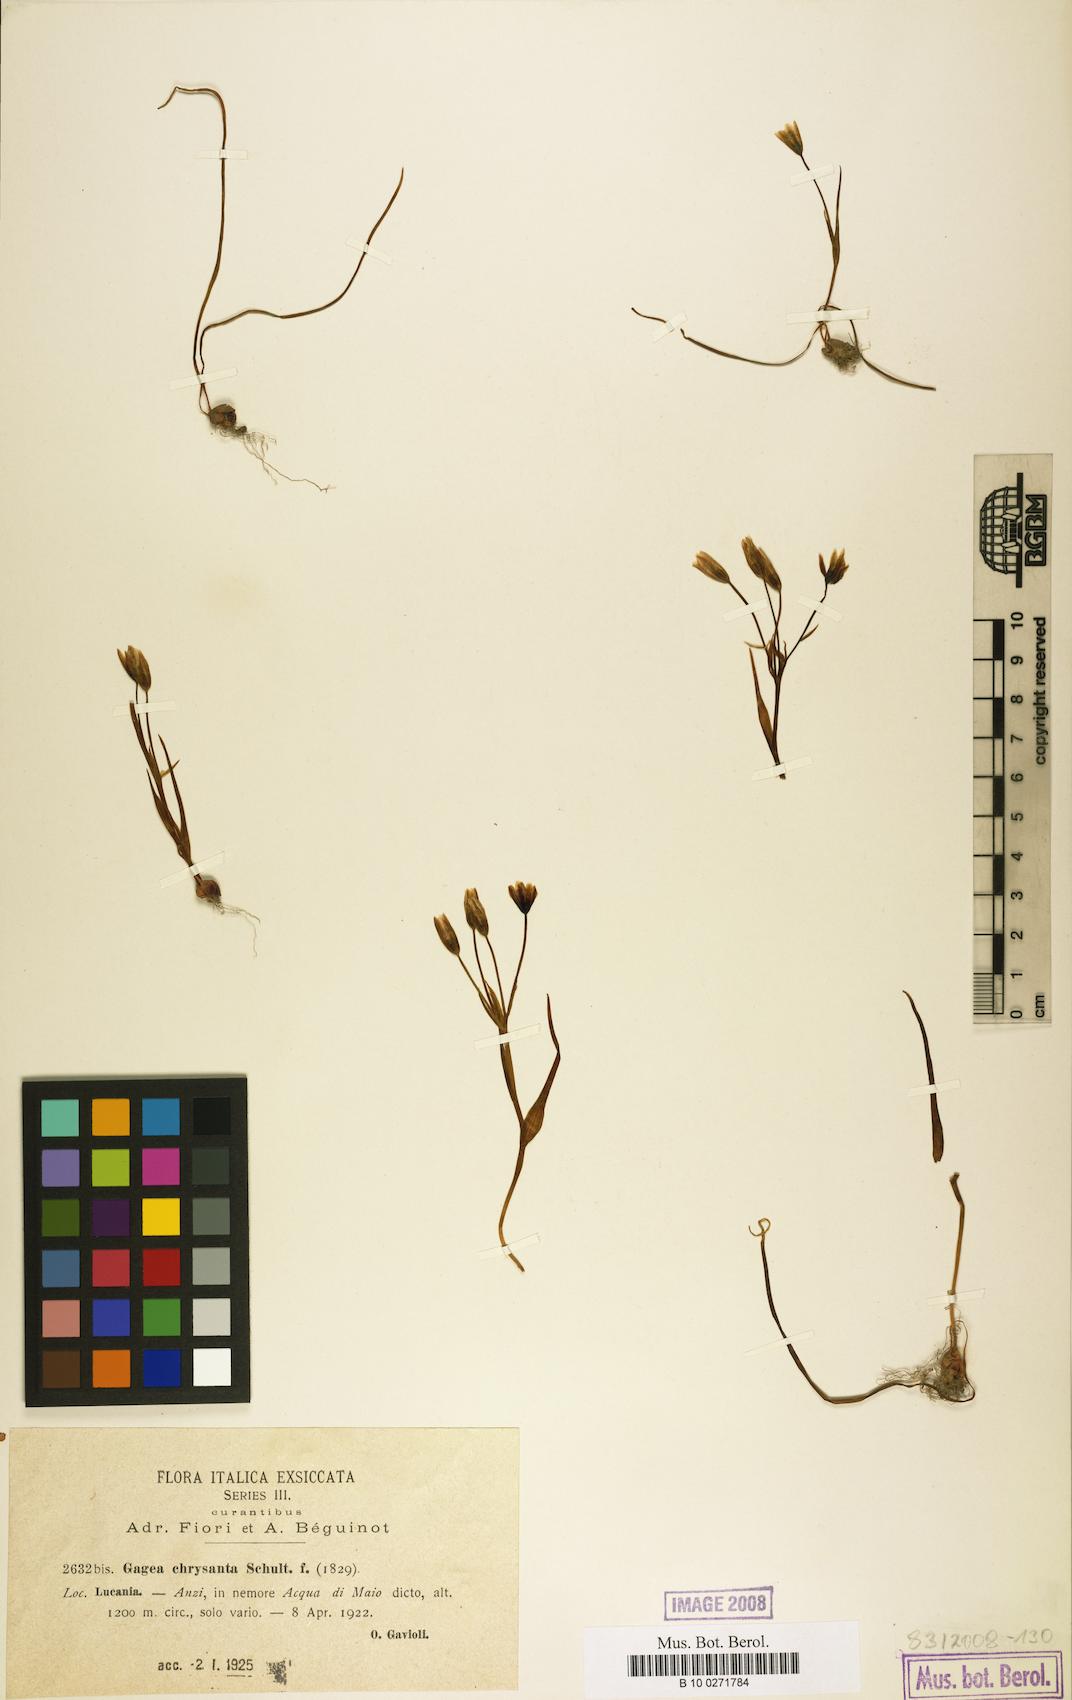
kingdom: Plantae
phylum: Tracheophyta
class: Liliopsida
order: Liliales
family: Liliaceae
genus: Gagea
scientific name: Gagea chrysantha
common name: Golden gagea
